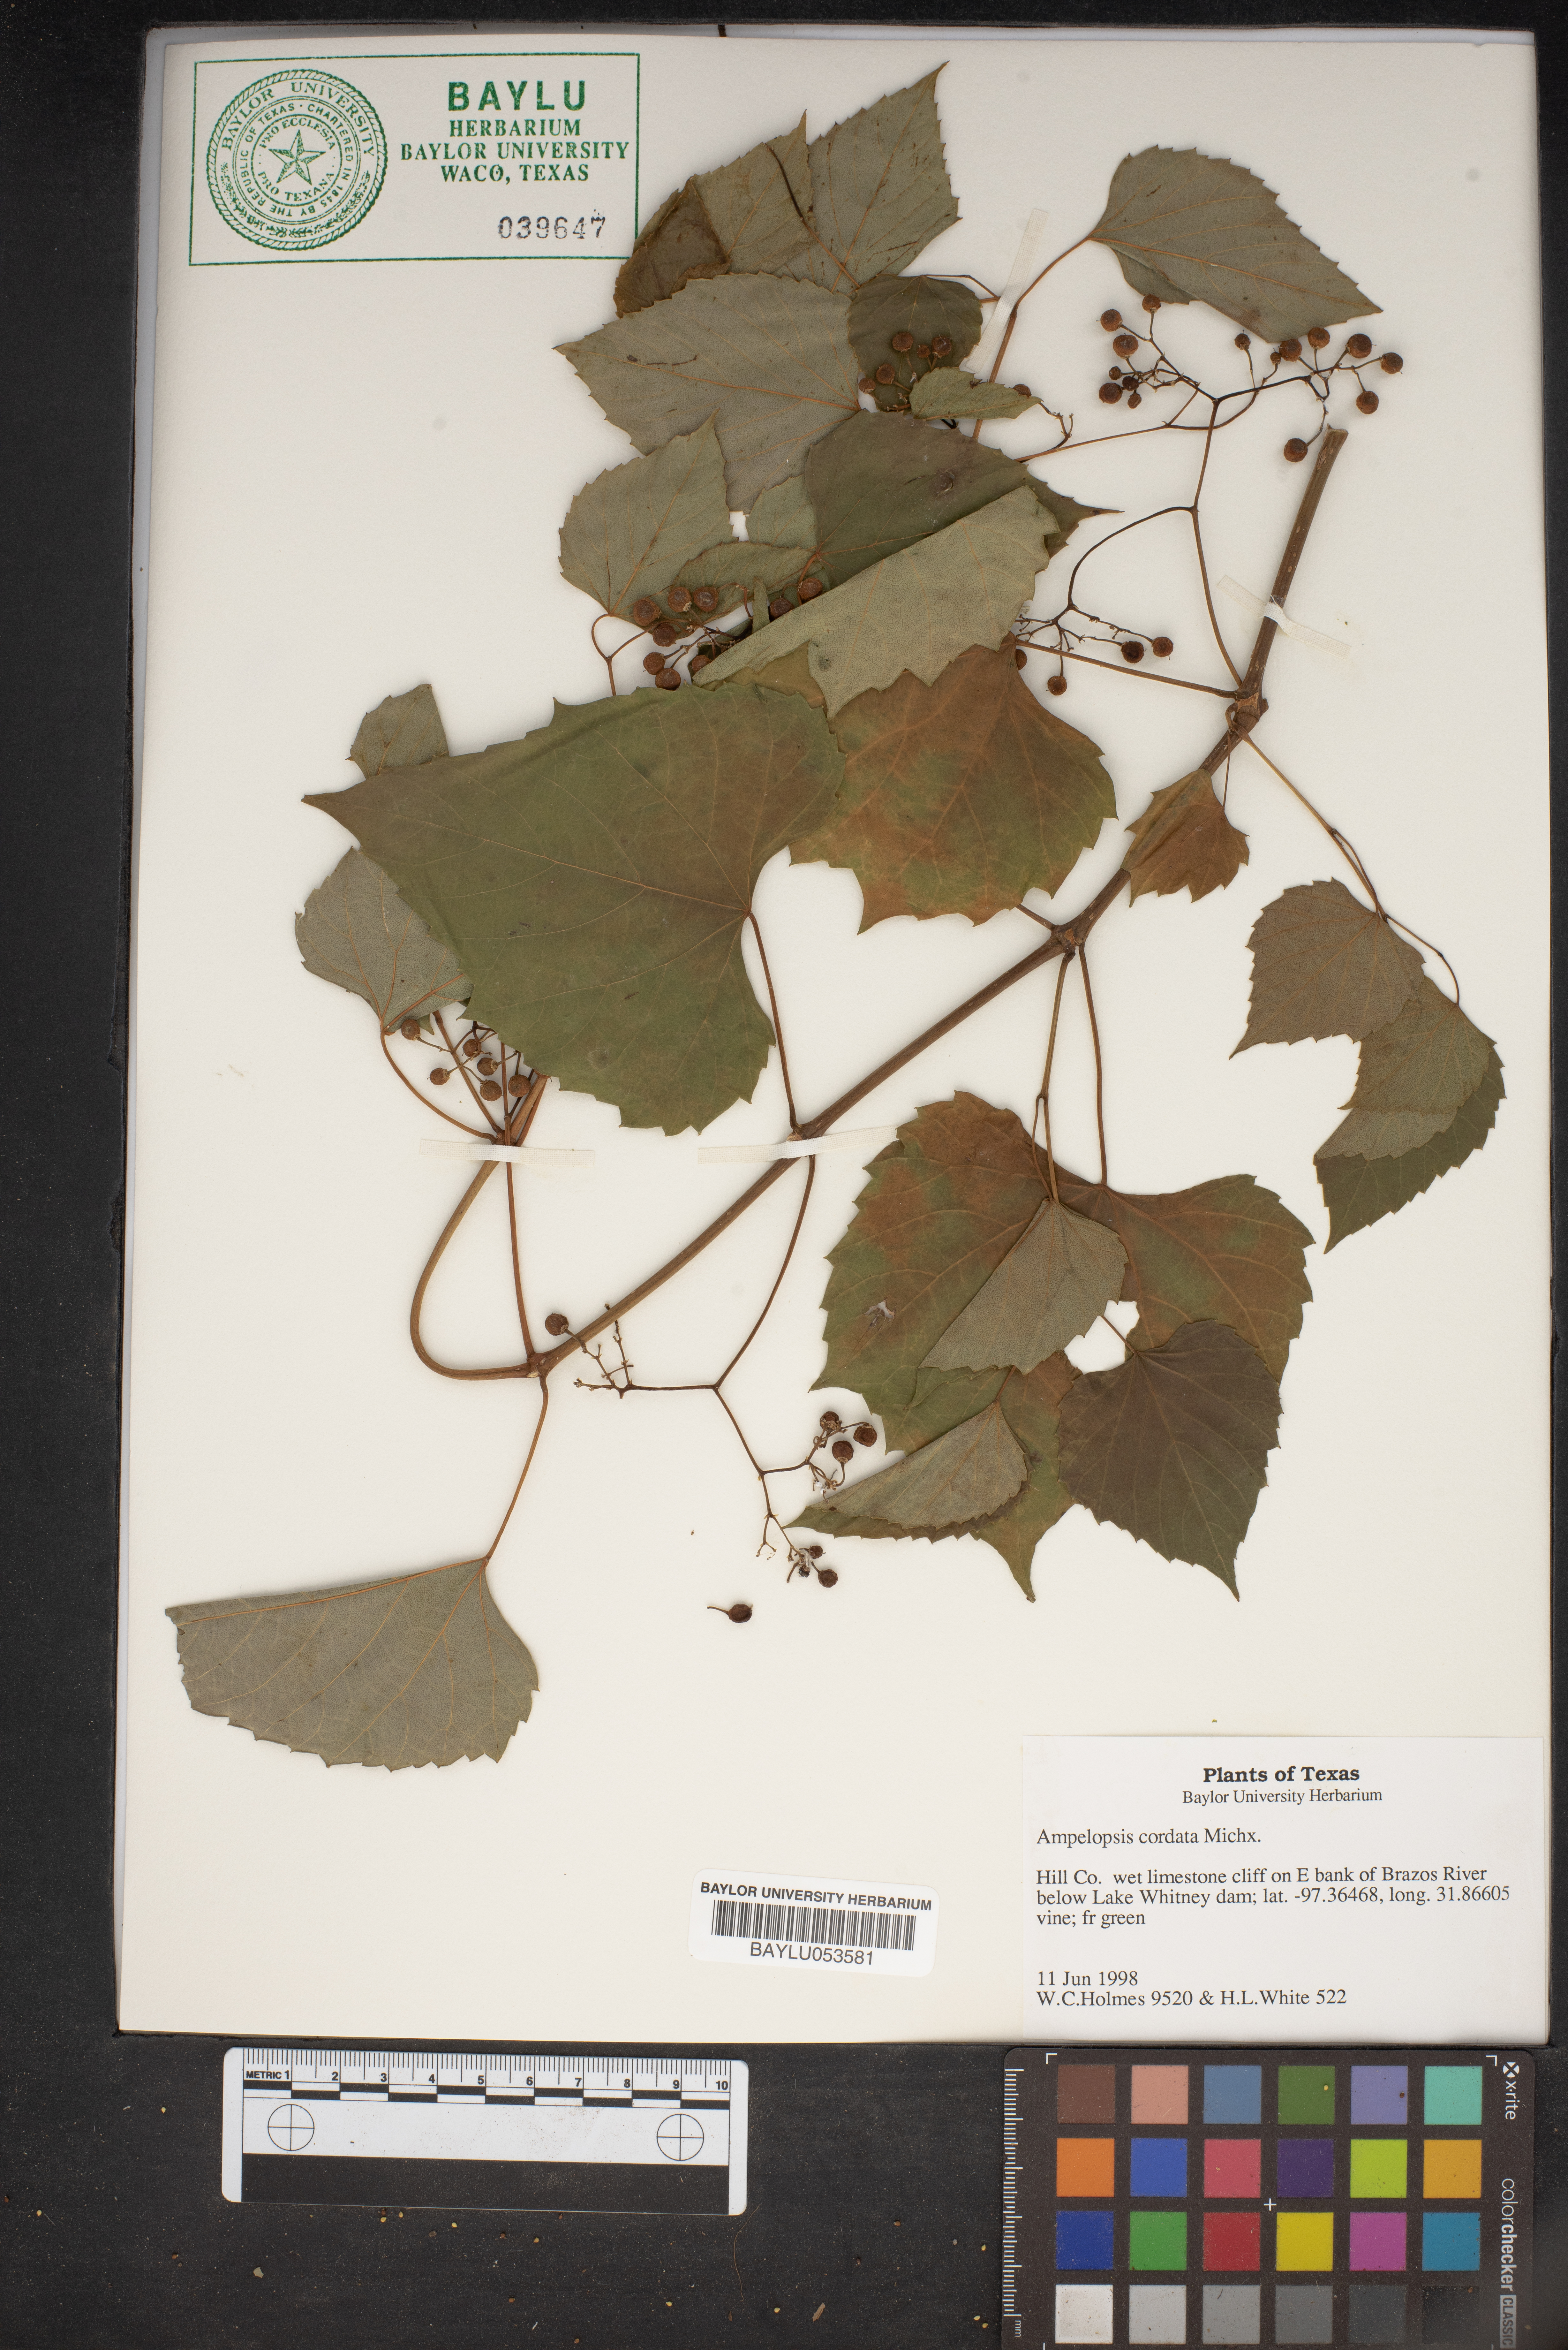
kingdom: Plantae
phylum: Tracheophyta
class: Magnoliopsida
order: Vitales
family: Vitaceae
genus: Ampelopsis
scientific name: Ampelopsis cordata
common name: Heart-leaf ampelopsis
